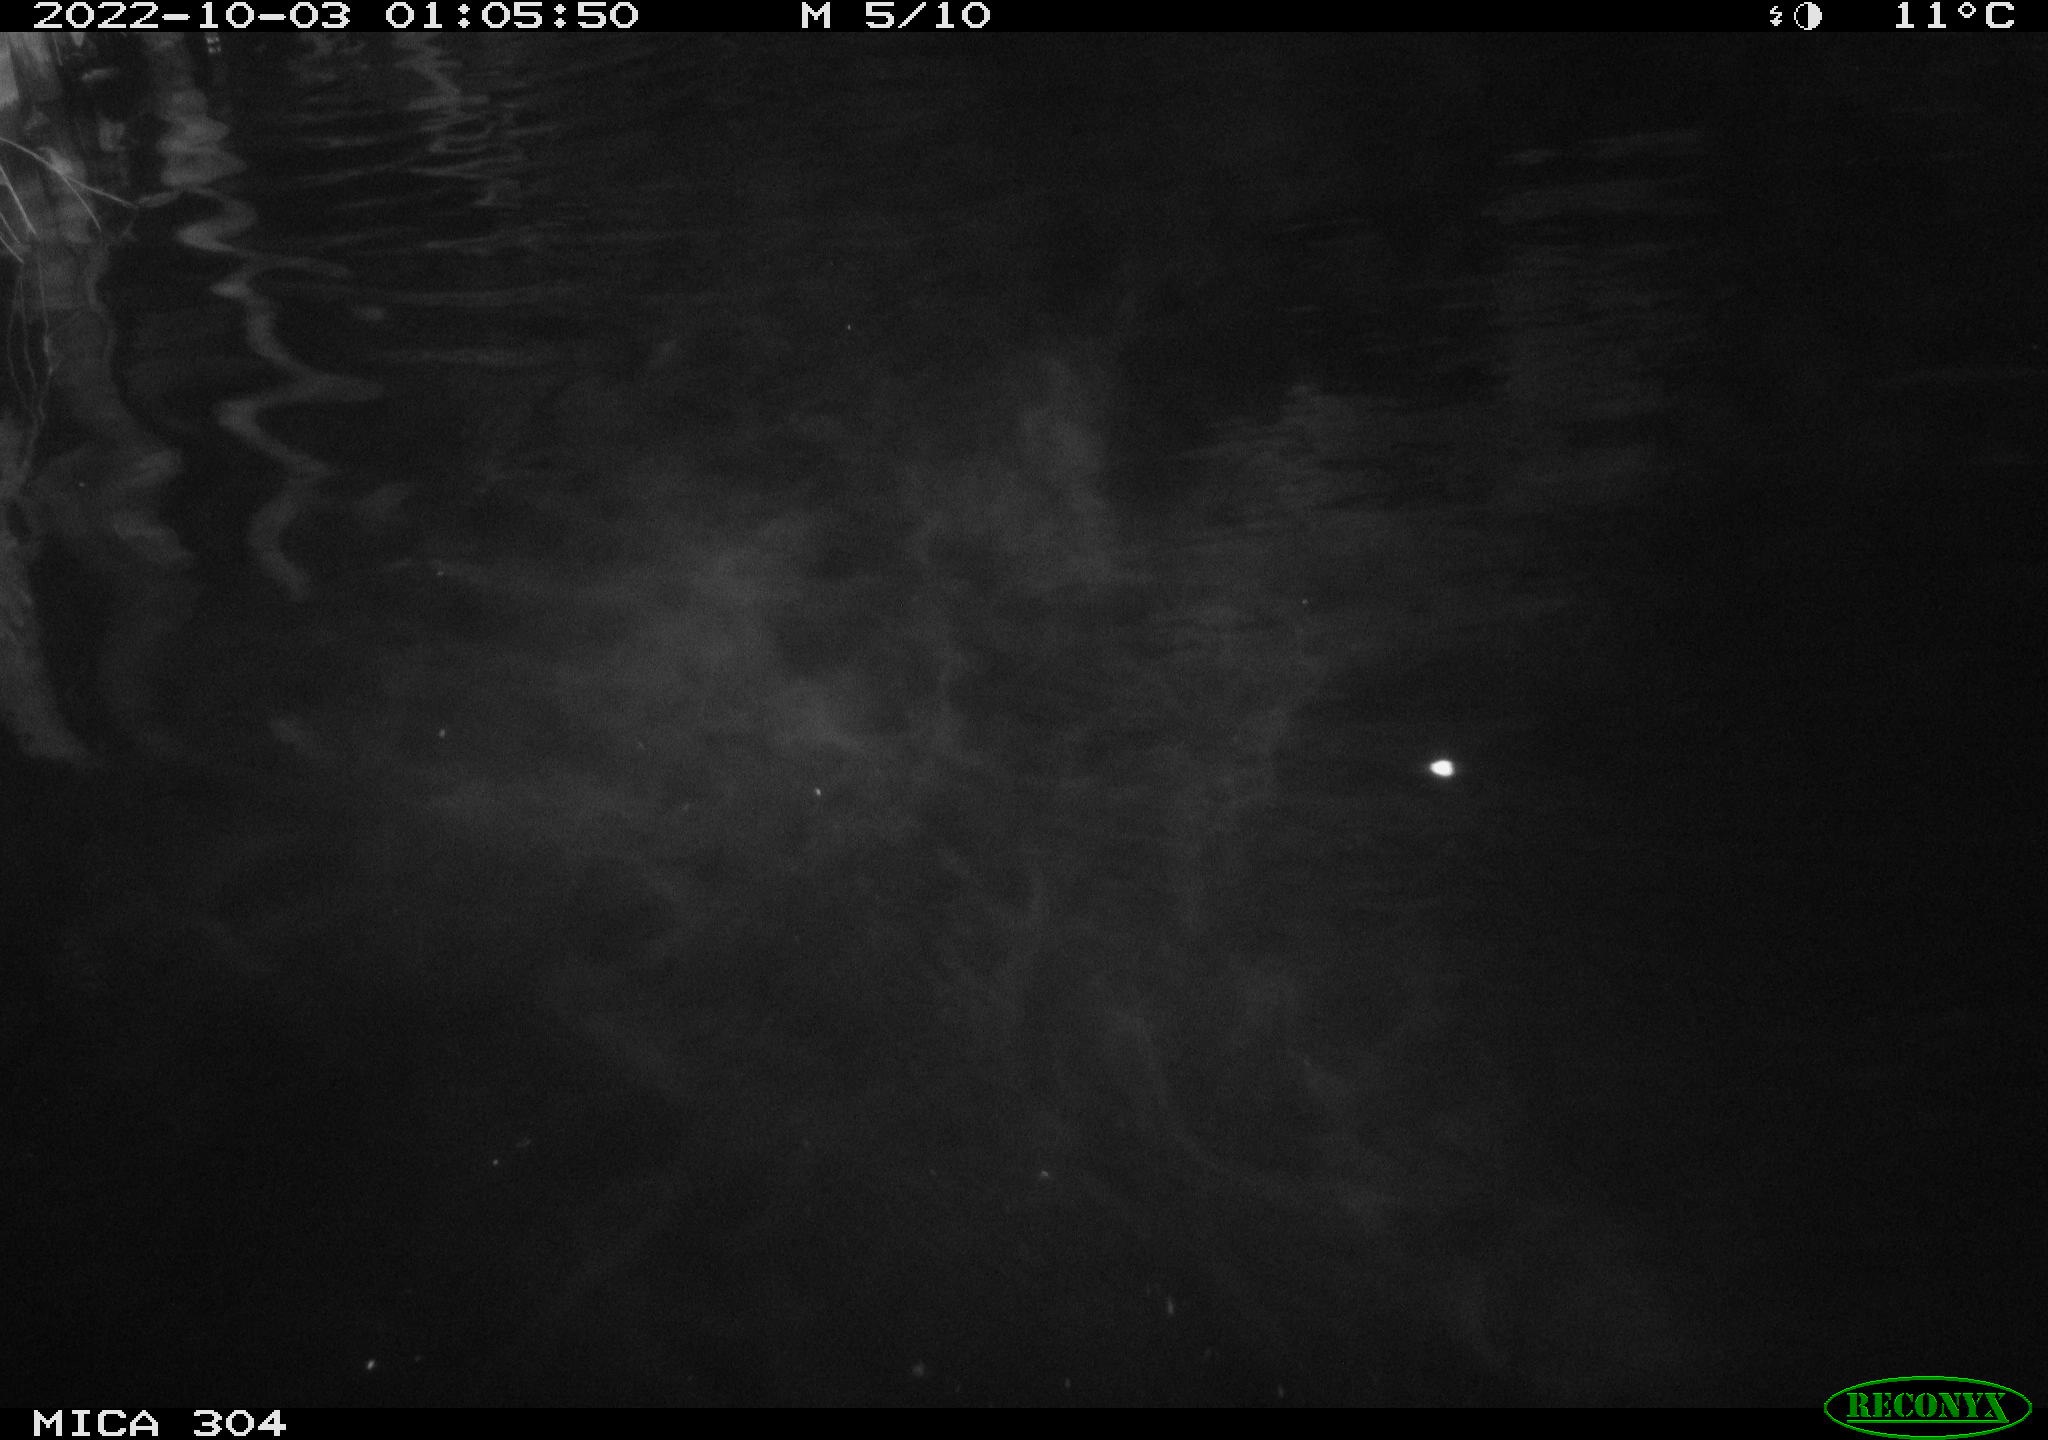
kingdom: Animalia
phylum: Chordata
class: Mammalia
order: Rodentia
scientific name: Rodentia
